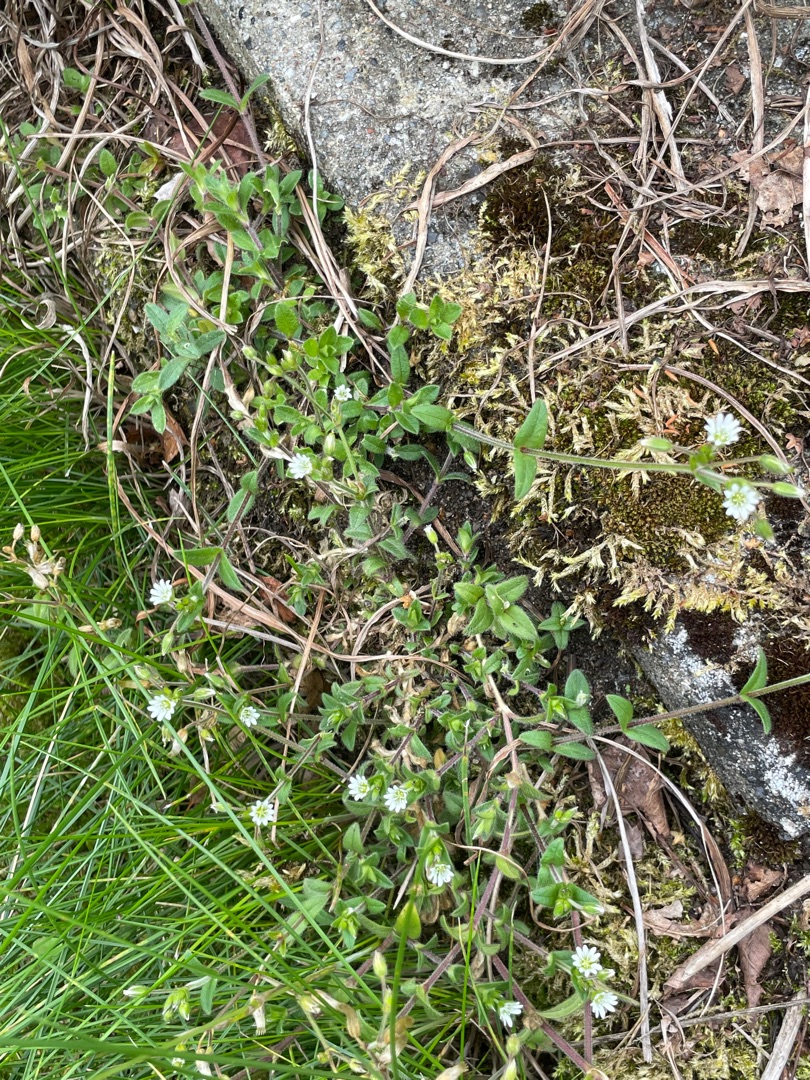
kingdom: Plantae
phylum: Tracheophyta
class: Magnoliopsida
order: Caryophyllales
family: Caryophyllaceae
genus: Cerastium
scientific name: Cerastium fontanum
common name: Almindelig hønsetarm
